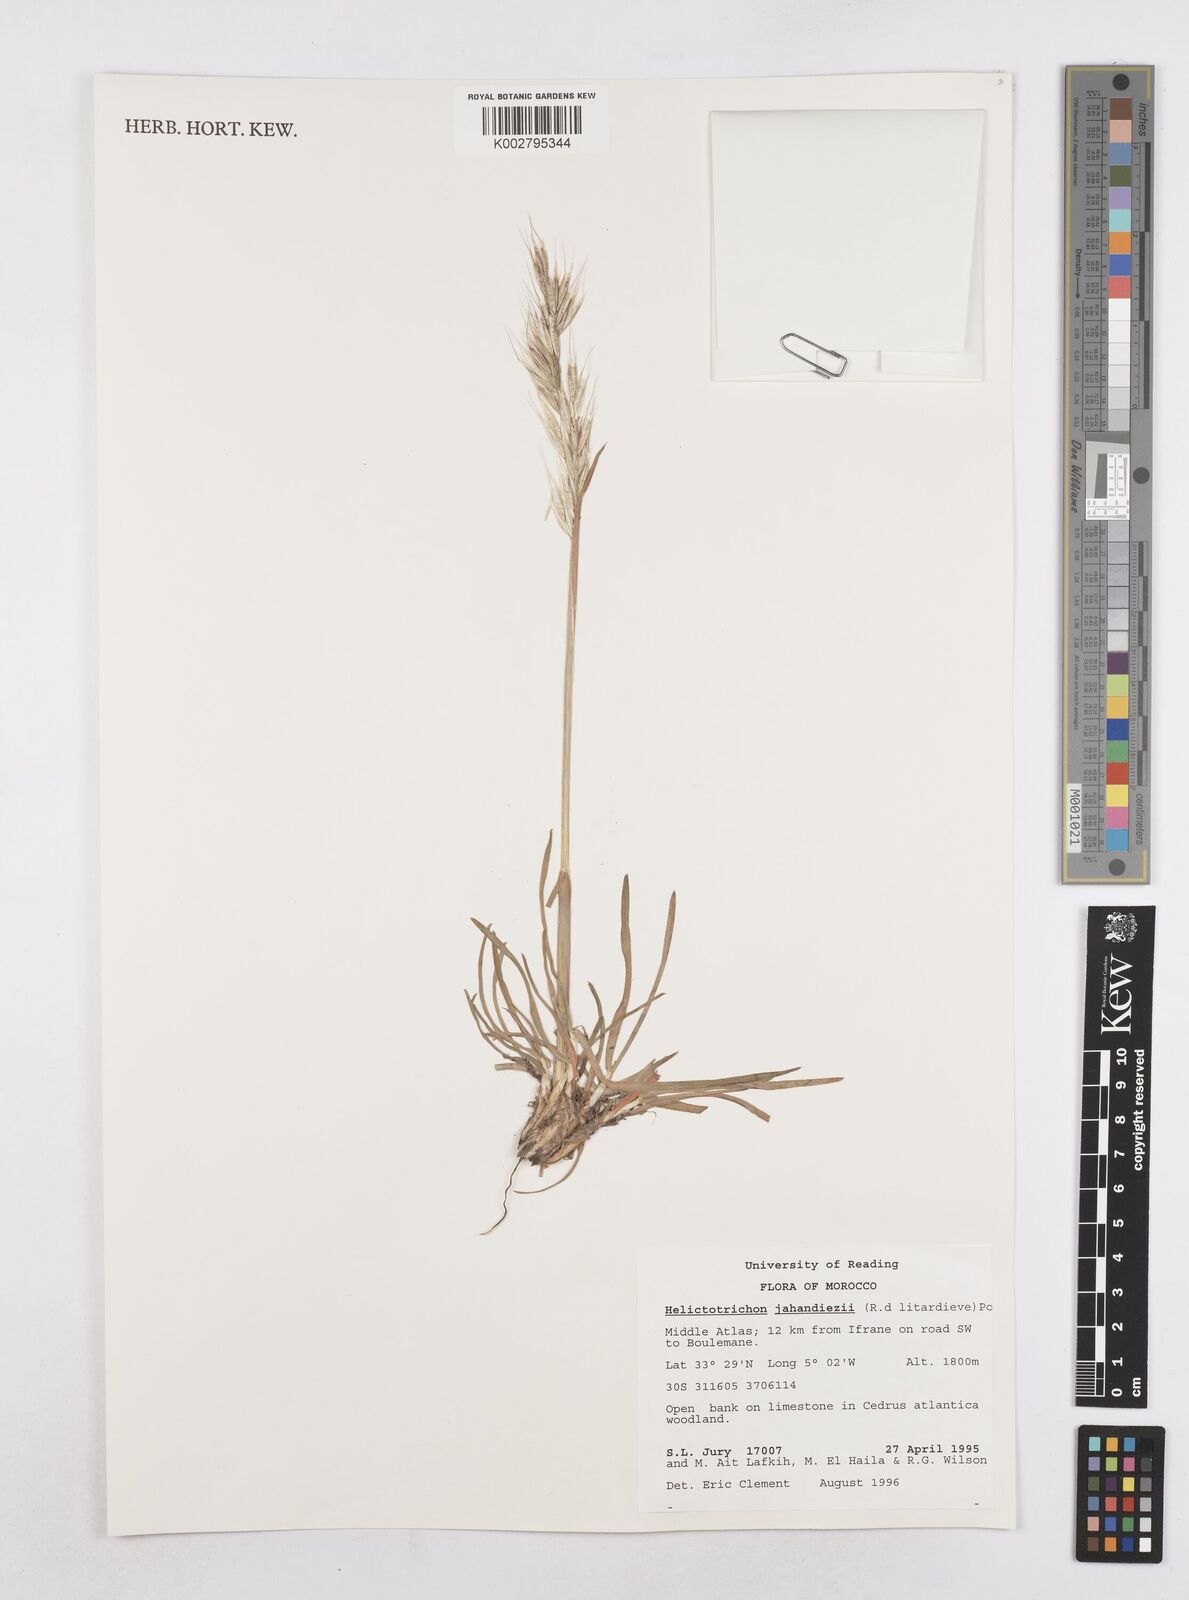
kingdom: Plantae
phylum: Tracheophyta
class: Liliopsida
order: Poales
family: Poaceae
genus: Tricholemma
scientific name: Tricholemma jahandiezii
